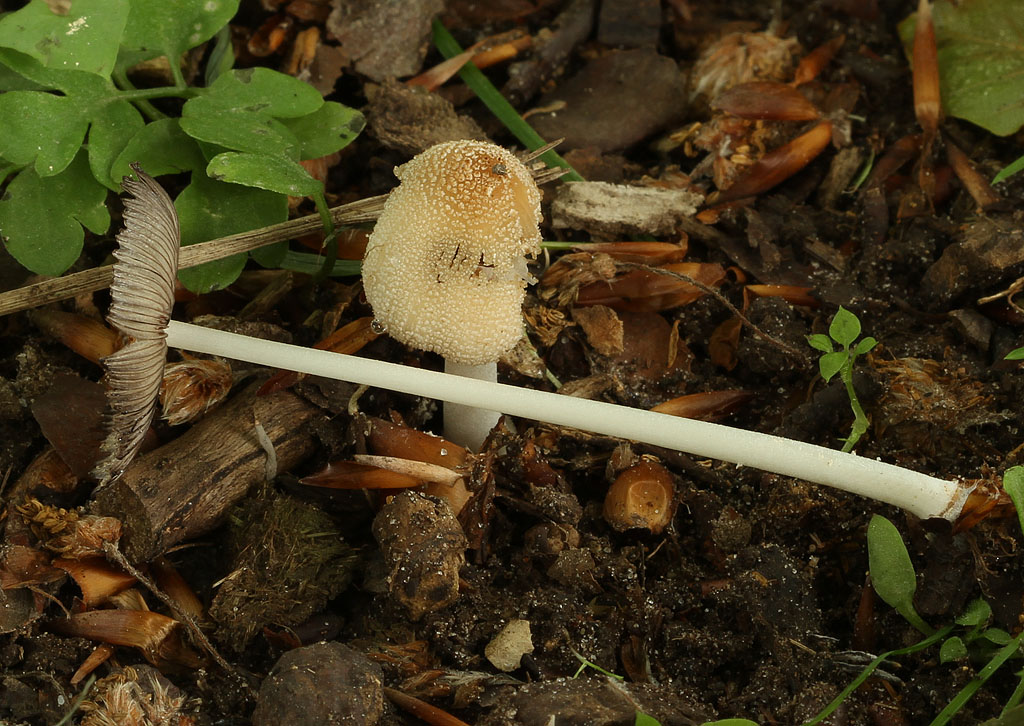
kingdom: Fungi
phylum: Basidiomycota
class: Agaricomycetes
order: Agaricales
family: Psathyrellaceae
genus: Coprinellus
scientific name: Coprinellus xanthothrix
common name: gultrådet blækhat
